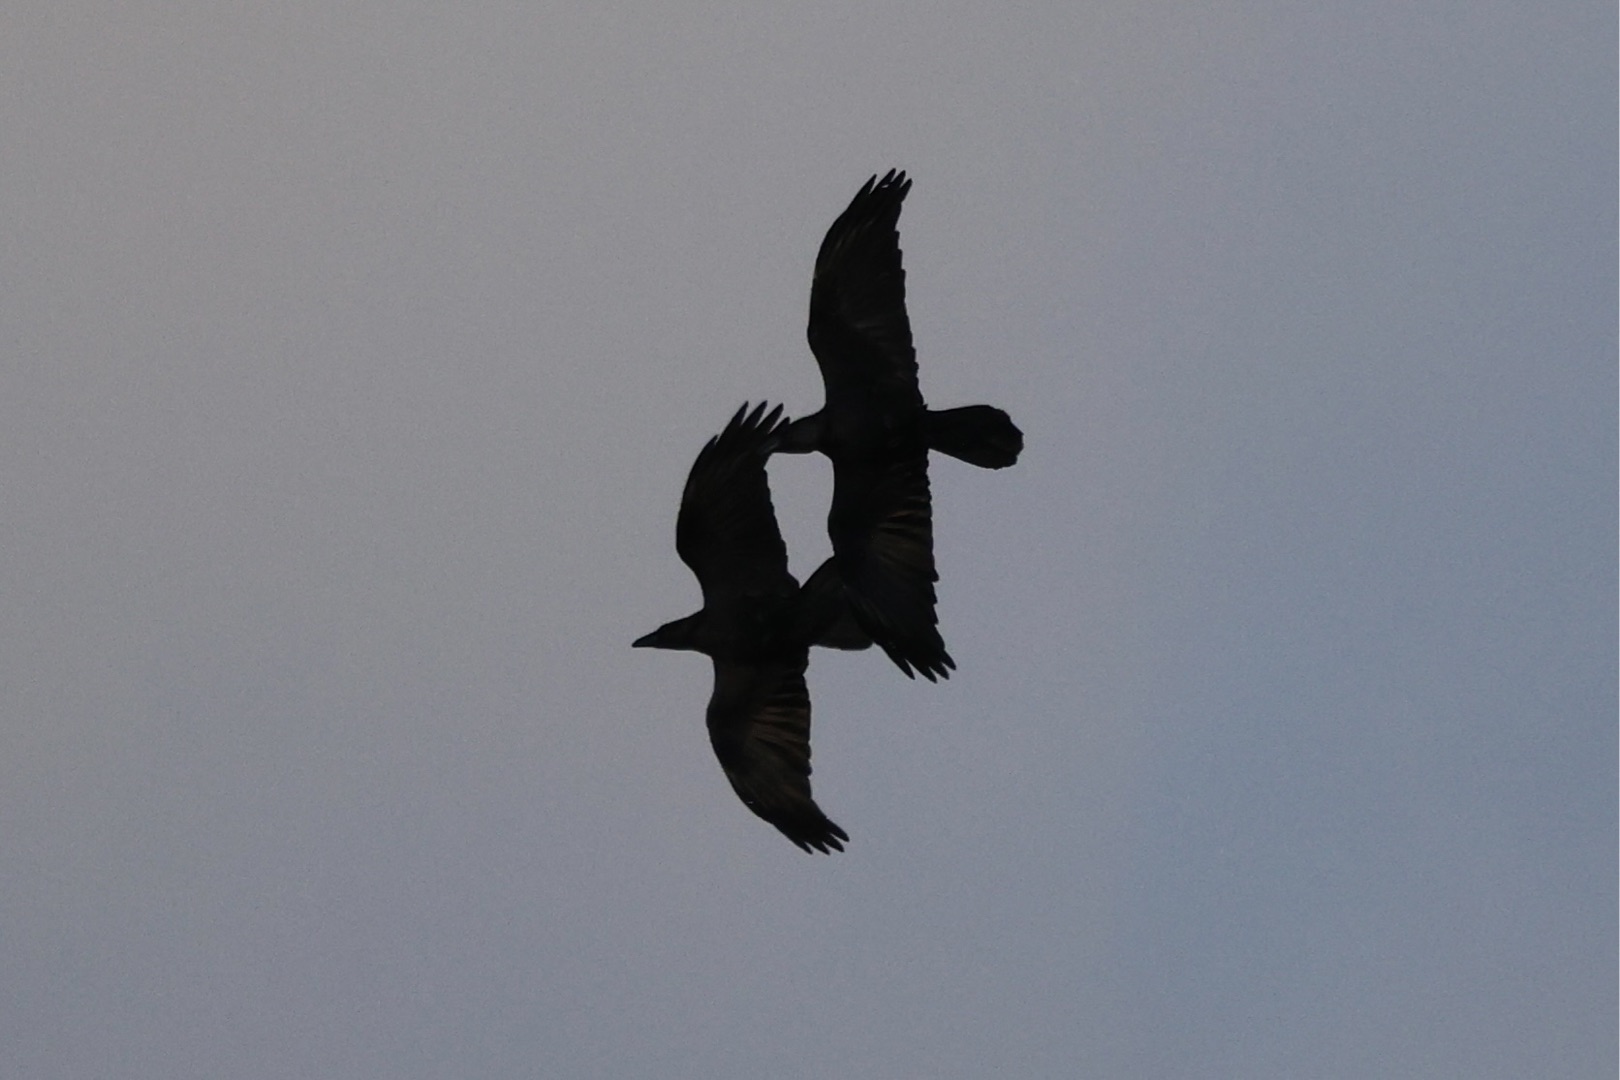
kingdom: Animalia
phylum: Chordata
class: Aves
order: Passeriformes
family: Corvidae
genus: Corvus
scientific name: Corvus corax
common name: Ravn
